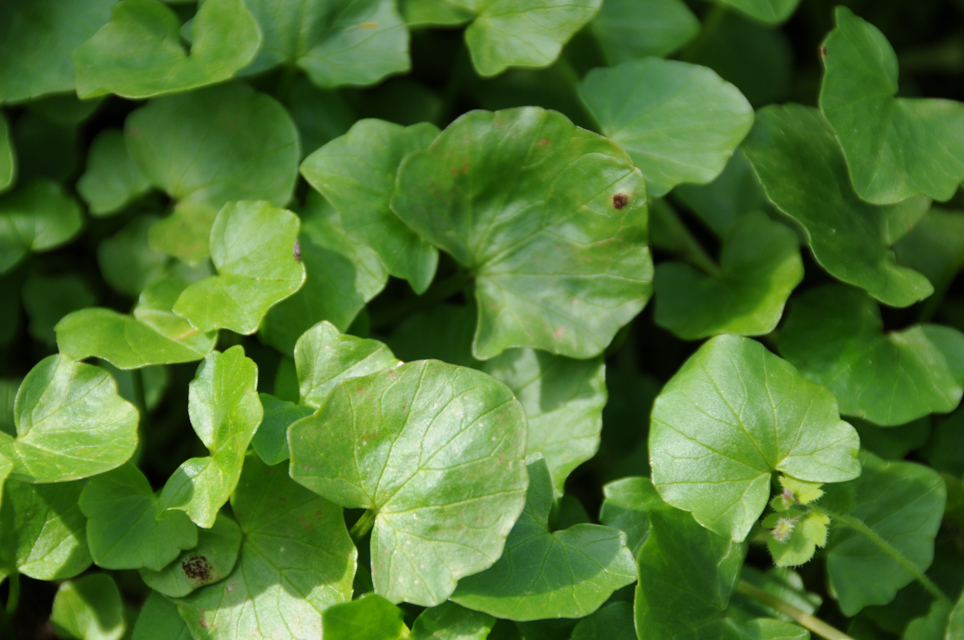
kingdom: Plantae
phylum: Tracheophyta
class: Magnoliopsida
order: Ranunculales
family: Ranunculaceae
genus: Ficaria
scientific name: Ficaria verna
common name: Lesser celandine
